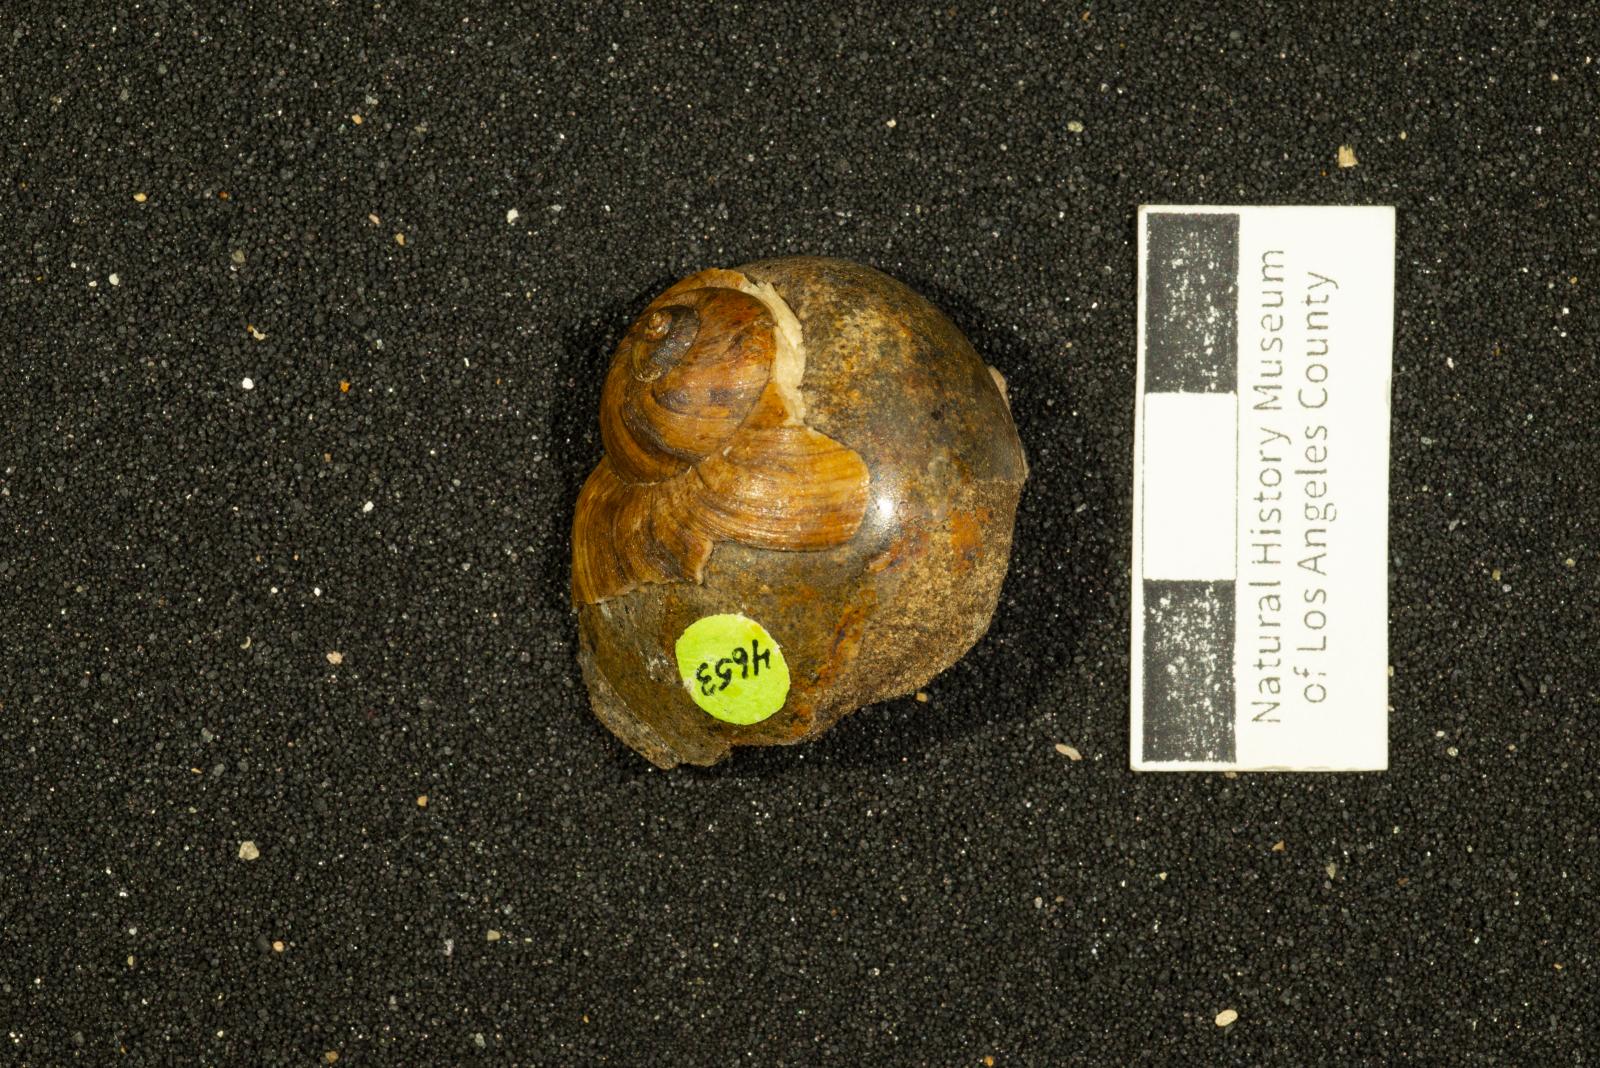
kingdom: Animalia
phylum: Mollusca
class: Gastropoda
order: Littorinimorpha
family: Naticidae
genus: Natica
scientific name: Natica conradiana
